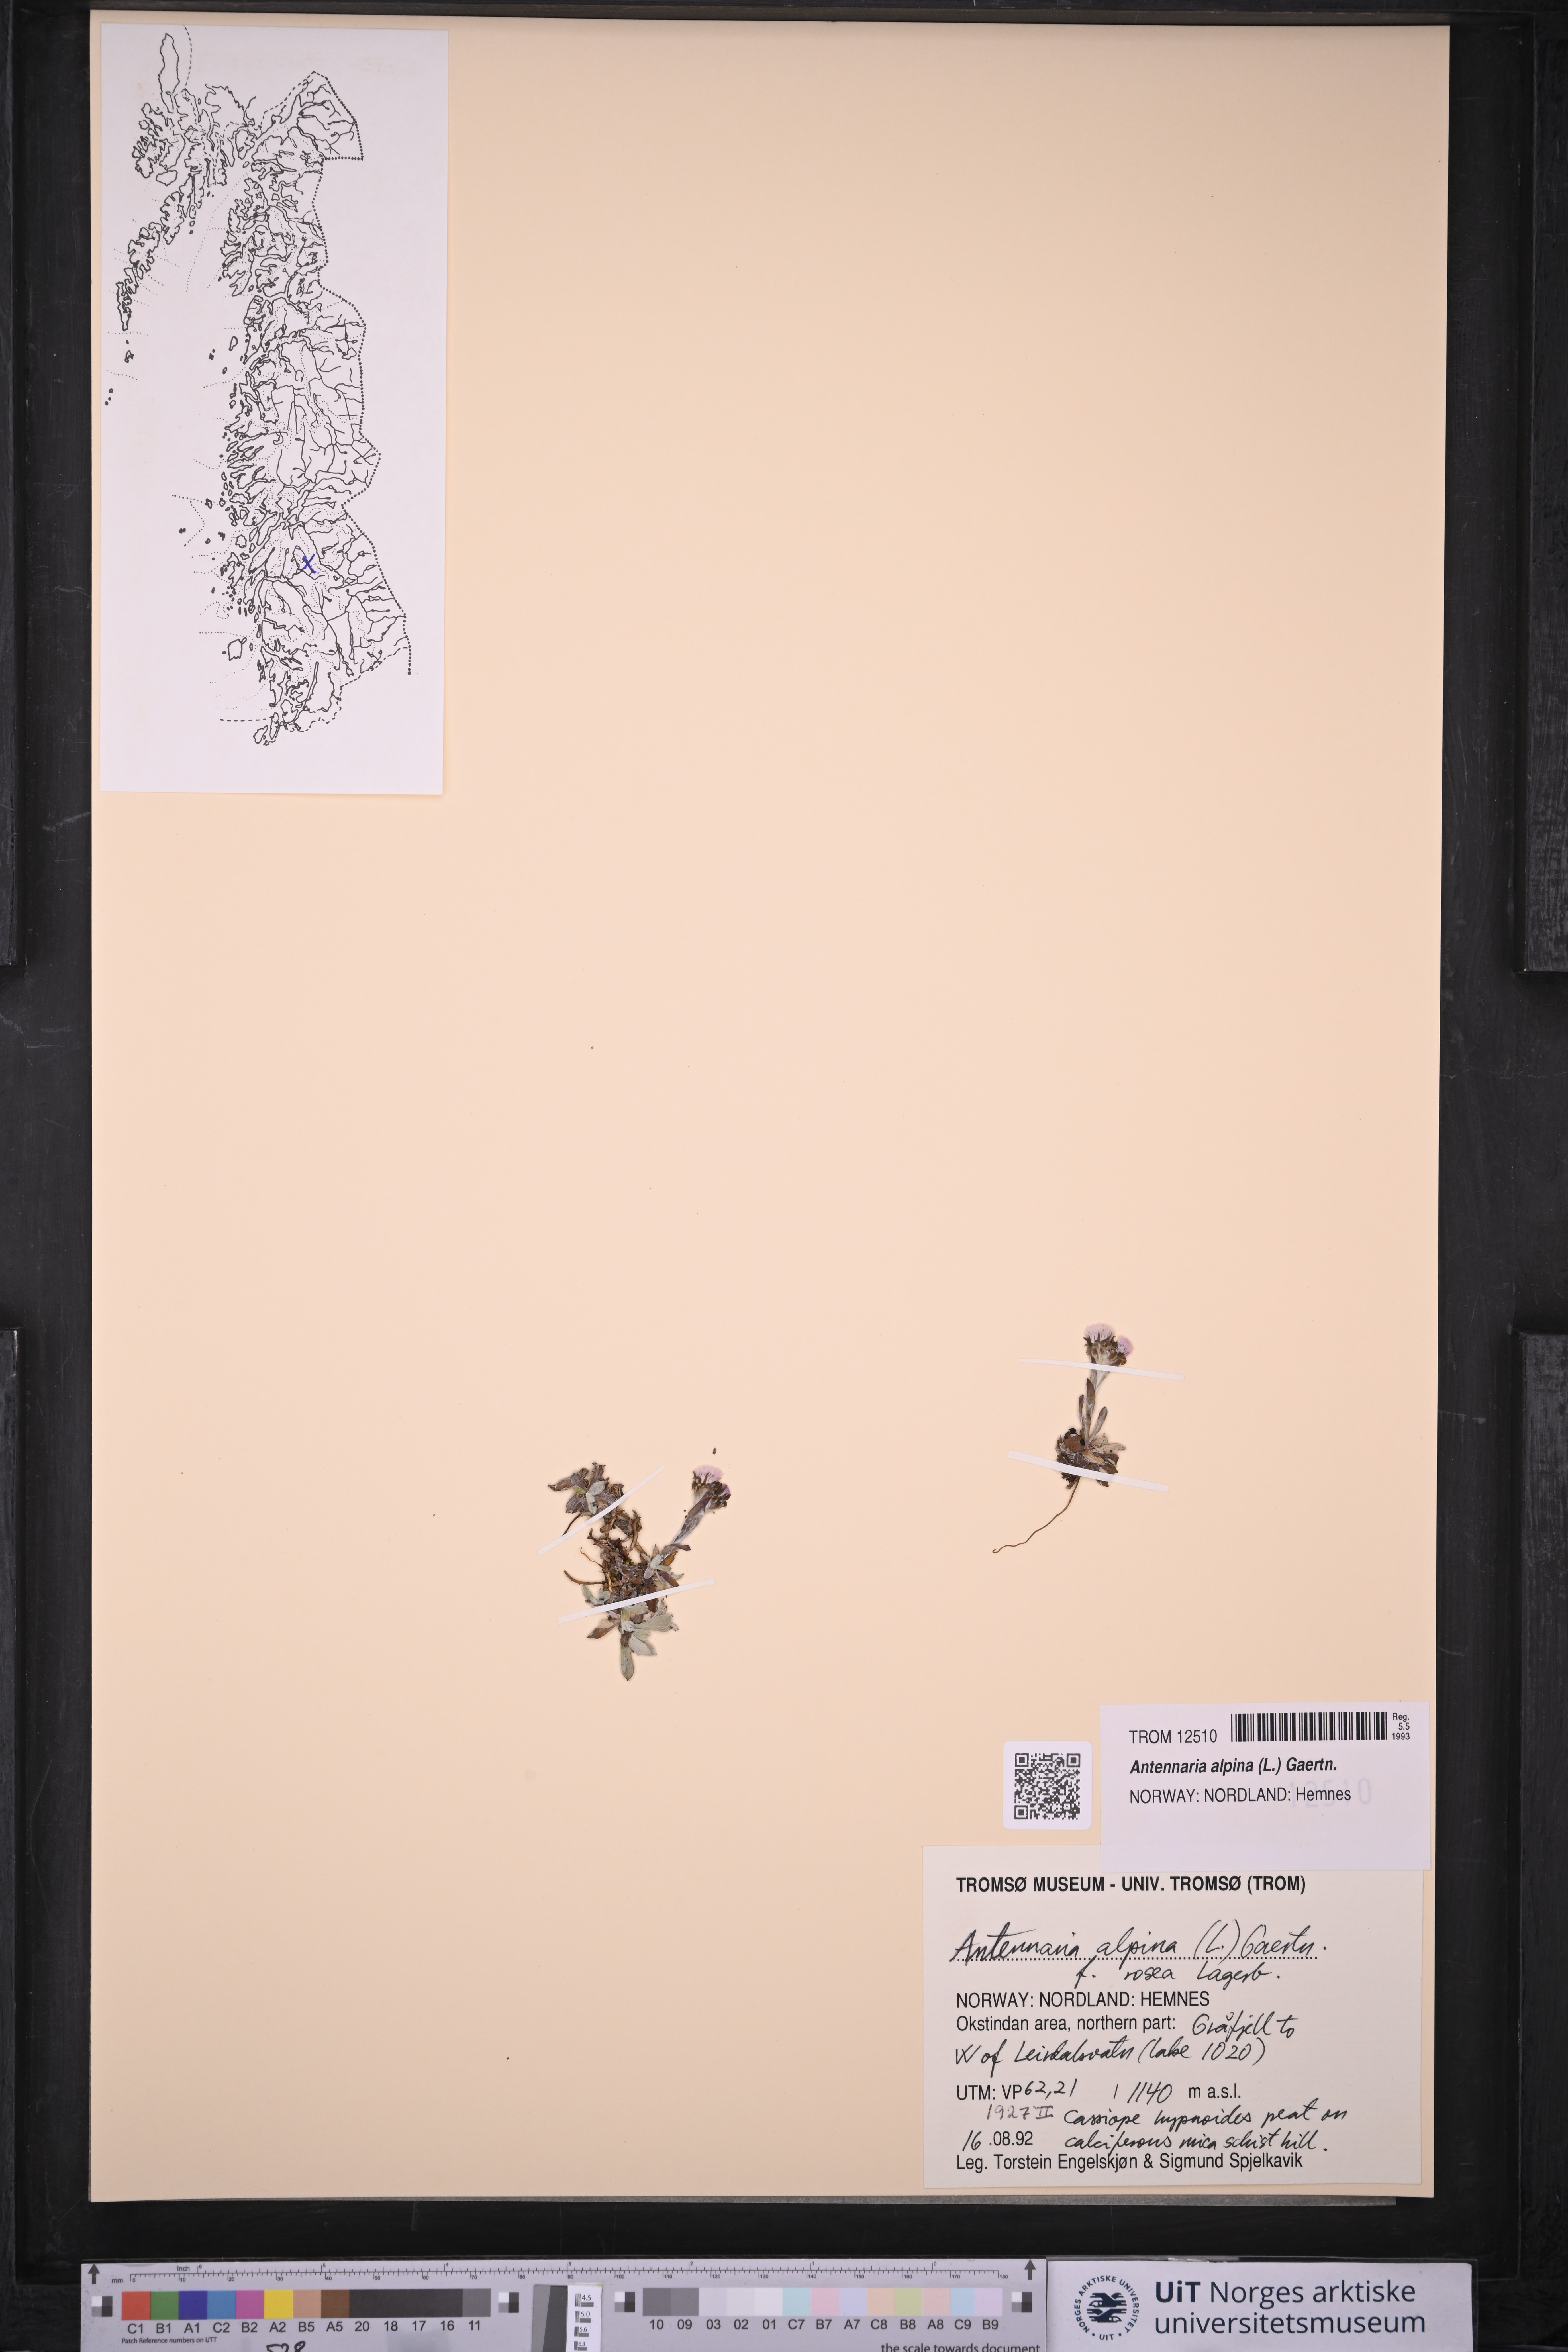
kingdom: Plantae
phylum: Tracheophyta
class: Magnoliopsida
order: Asterales
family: Asteraceae
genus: Antennaria
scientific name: Antennaria alpina
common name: Alpine pussytoes
